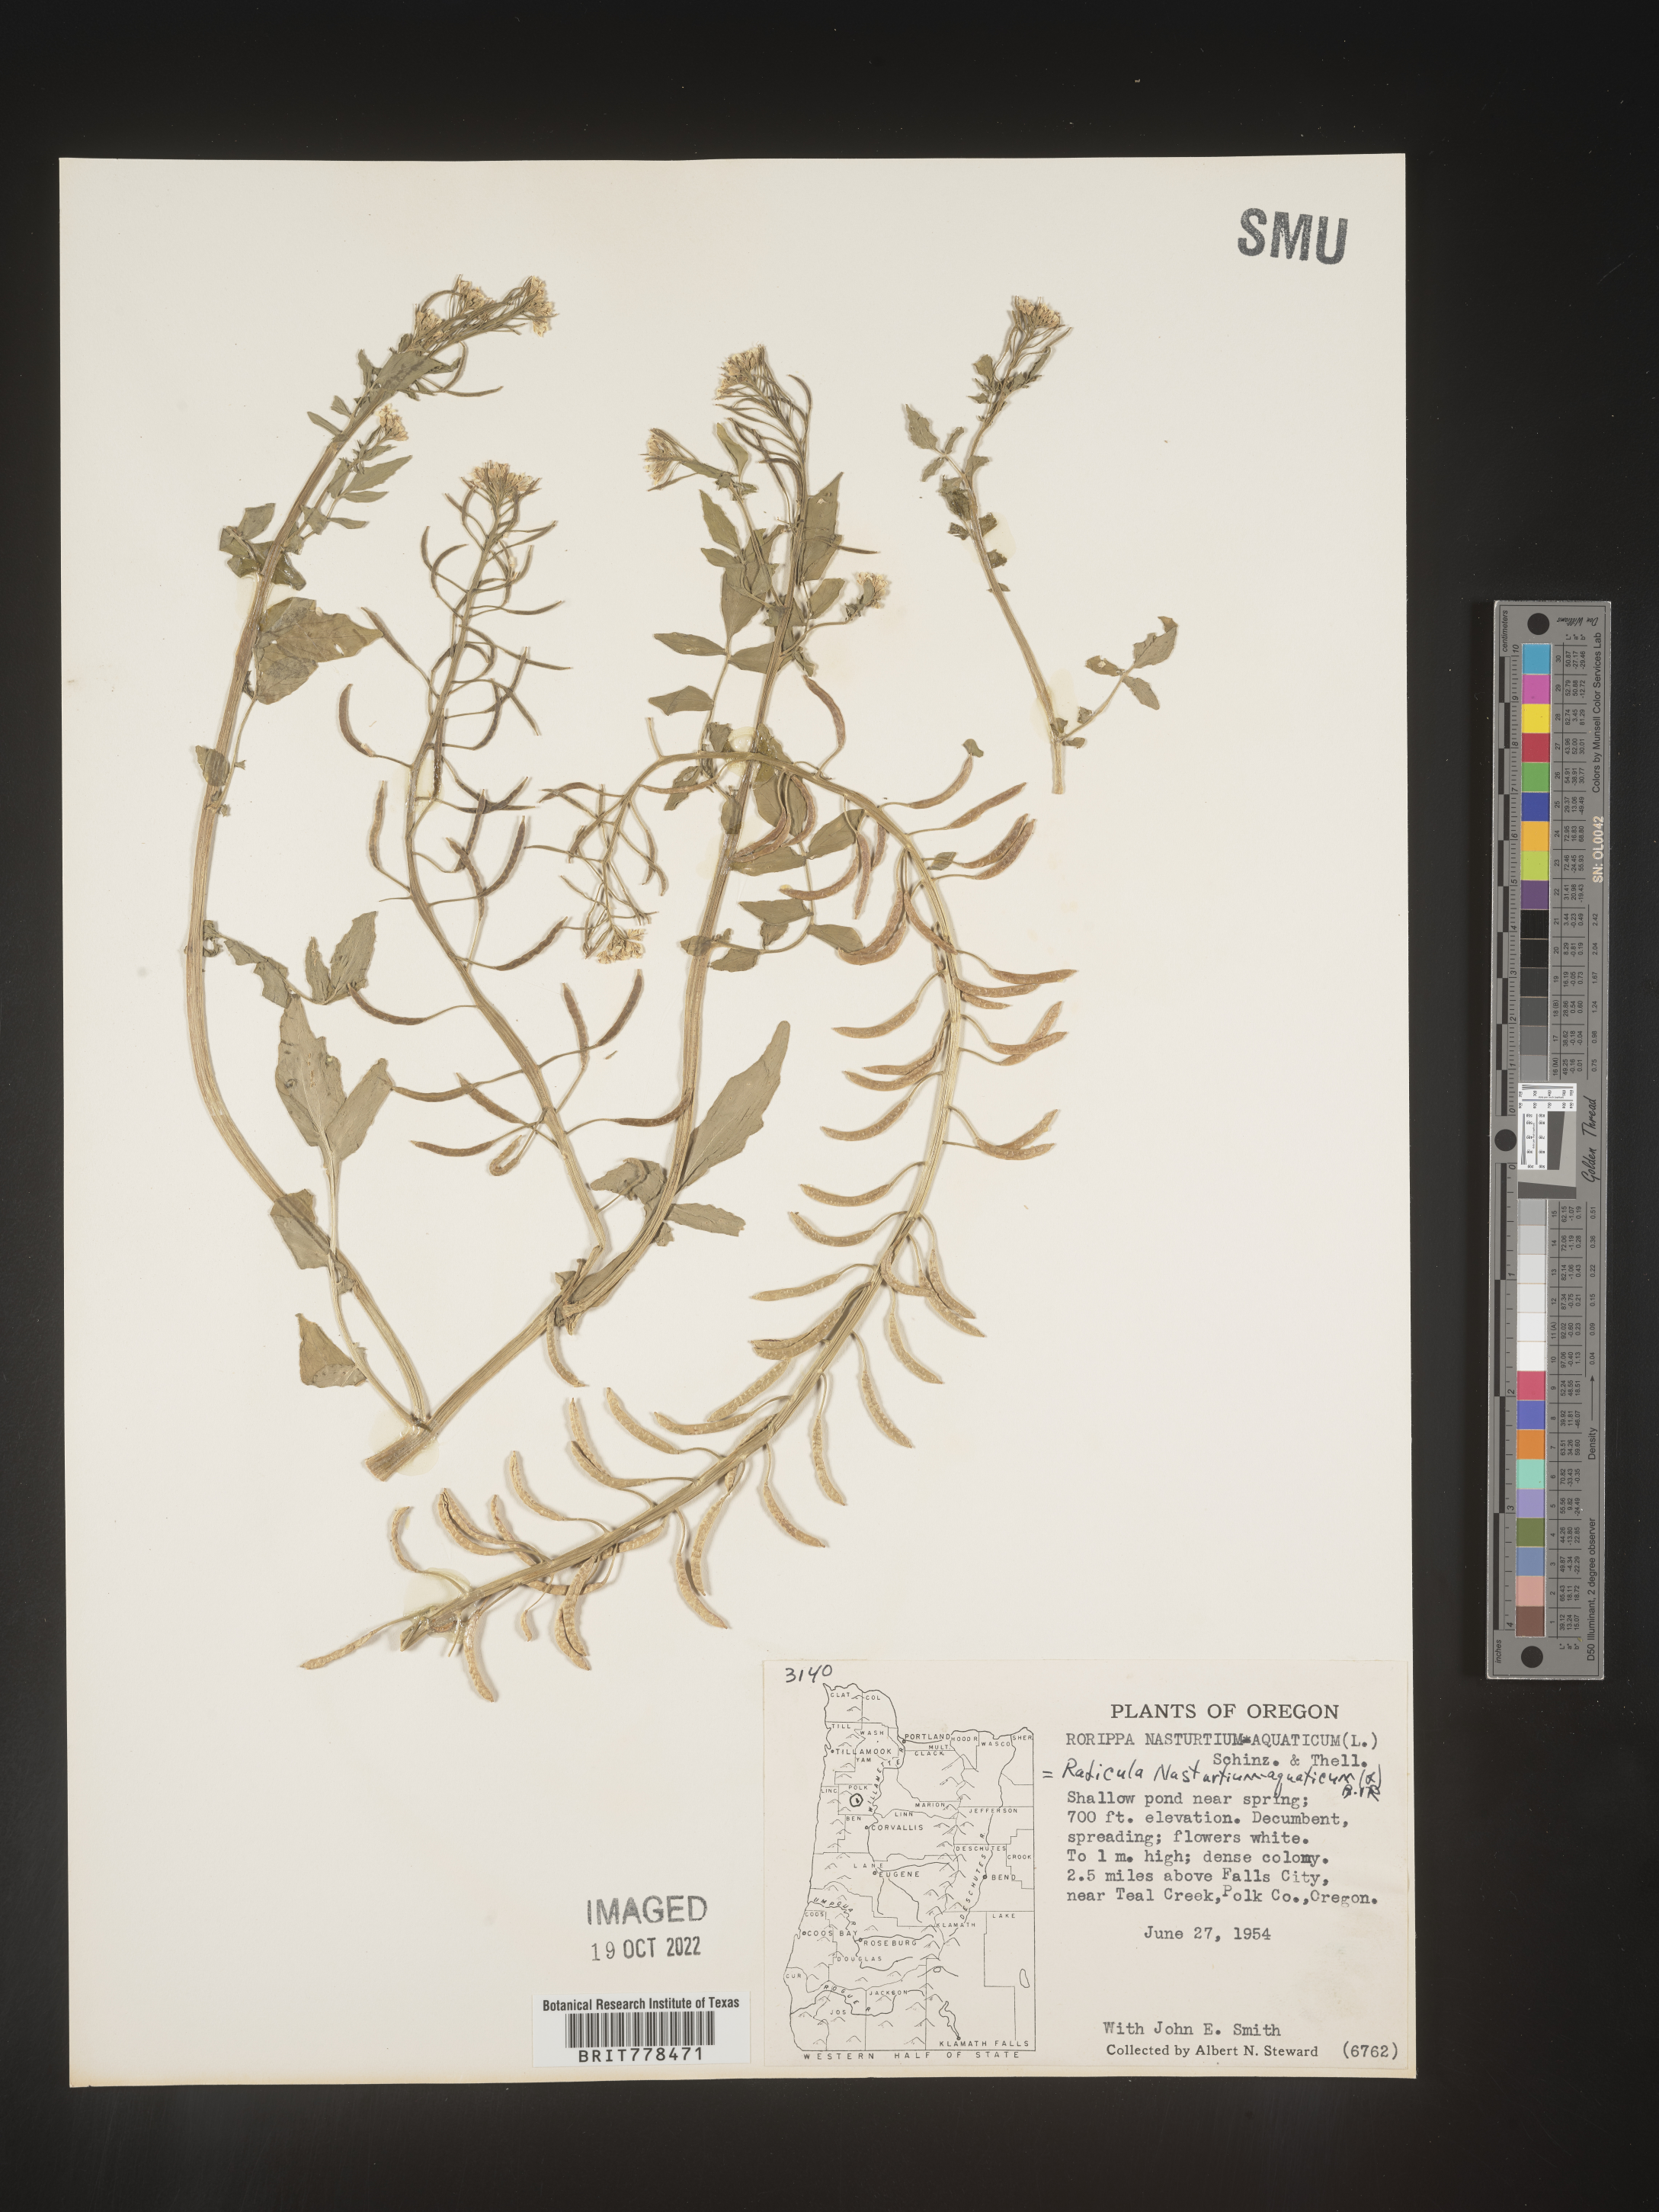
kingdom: Plantae
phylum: Tracheophyta
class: Magnoliopsida
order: Brassicales
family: Brassicaceae
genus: Nasturtium
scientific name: Nasturtium officinale
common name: Watercress
